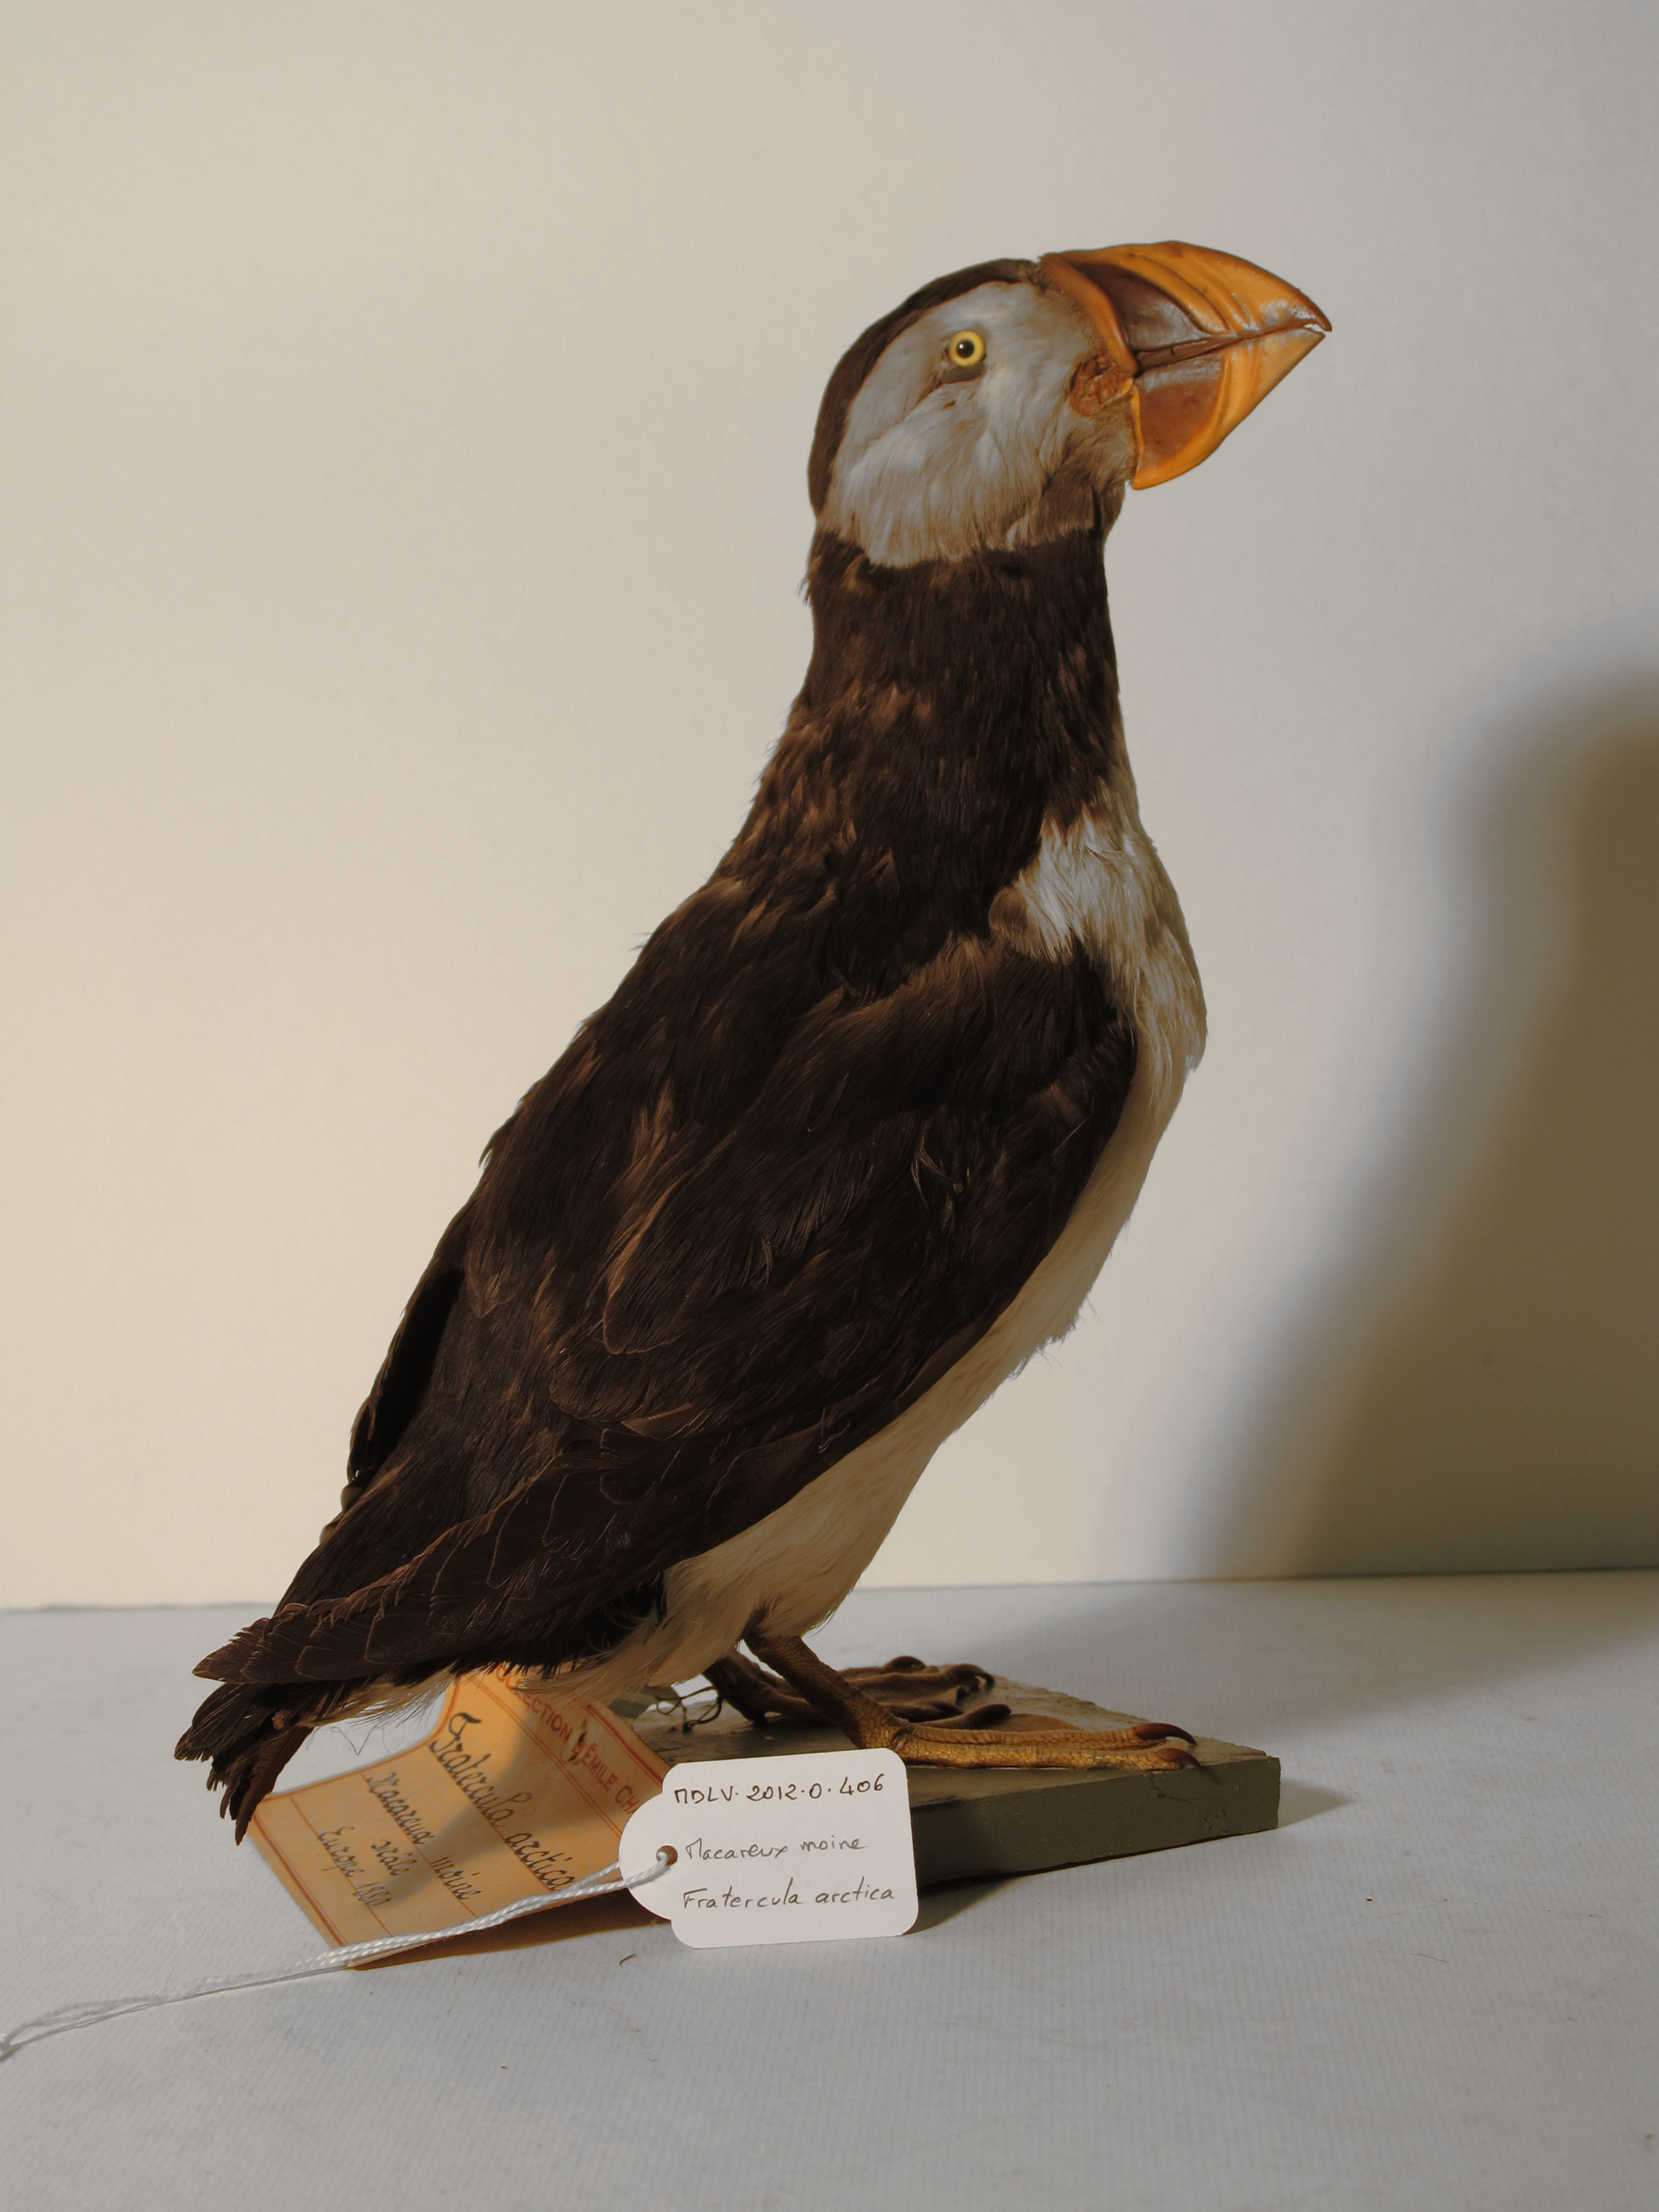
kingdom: Animalia
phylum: Chordata
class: Aves
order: Charadriiformes
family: Alcidae
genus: Fratercula
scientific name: Fratercula arctica
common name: Atlantic Puffin
